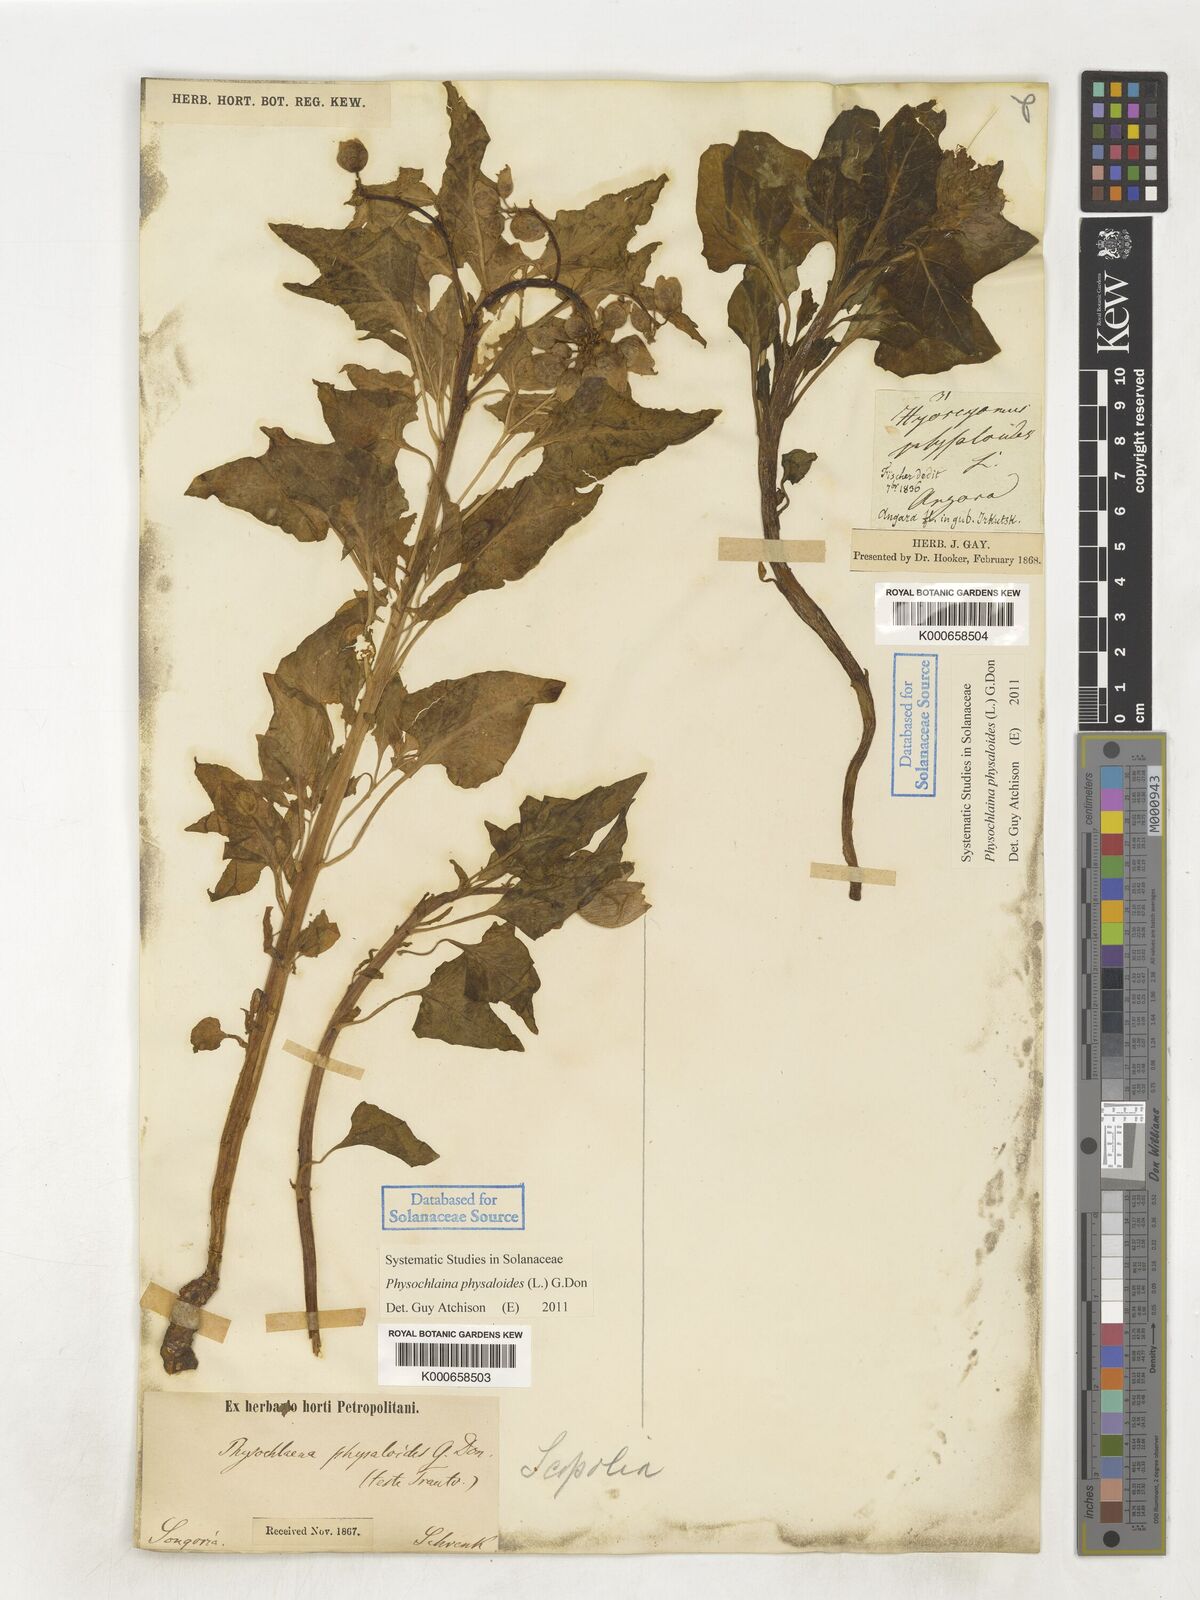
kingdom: Plantae
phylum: Tracheophyta
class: Magnoliopsida
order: Solanales
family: Solanaceae
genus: Physochlaina
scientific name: Physochlaina physaloides
